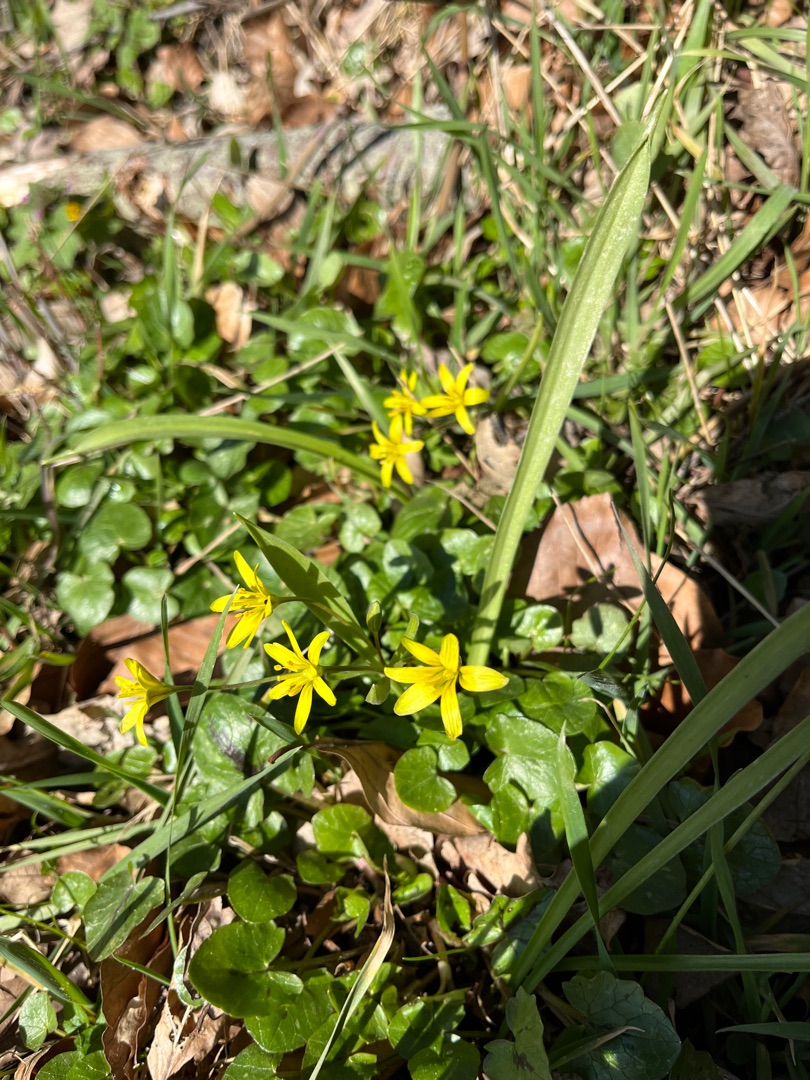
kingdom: Plantae
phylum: Tracheophyta
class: Liliopsida
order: Liliales
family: Liliaceae
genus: Gagea
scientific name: Gagea lutea
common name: Almindelig guldstjerne
